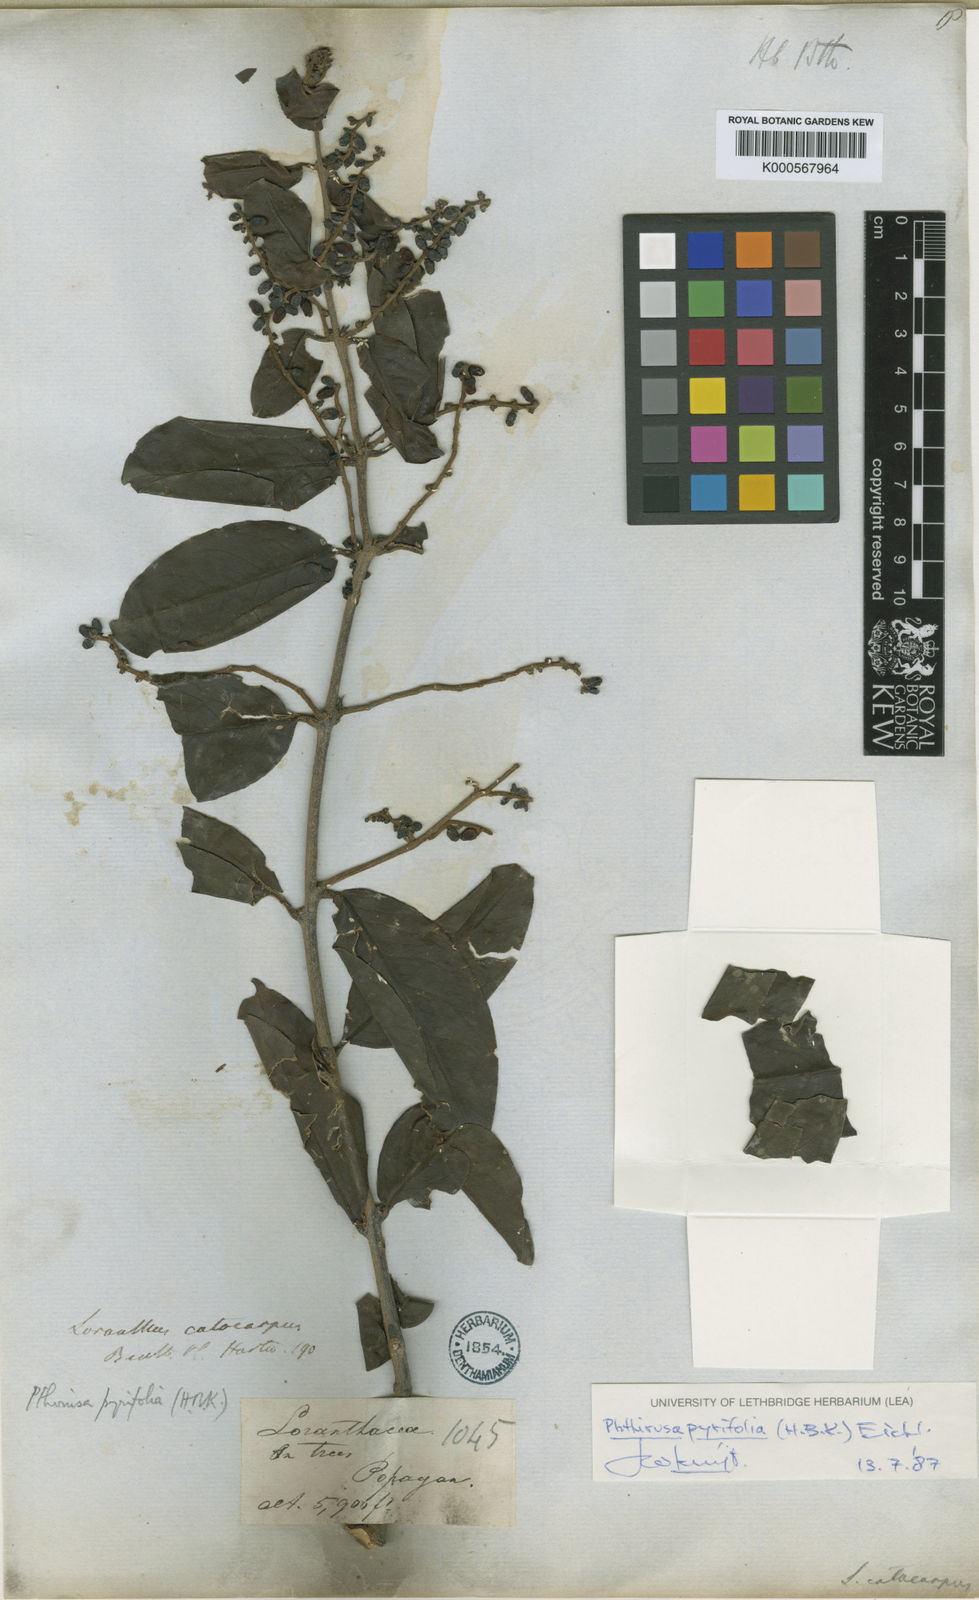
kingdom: Plantae
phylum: Tracheophyta
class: Magnoliopsida
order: Santalales
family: Loranthaceae
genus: Passovia
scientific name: Passovia pyrifolia
